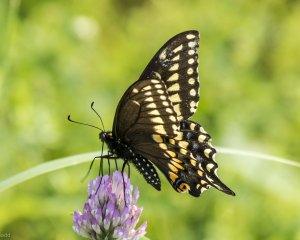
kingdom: Animalia
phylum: Arthropoda
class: Insecta
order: Lepidoptera
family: Papilionidae
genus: Papilio
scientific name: Papilio polyxenes
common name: Black Swallowtail
